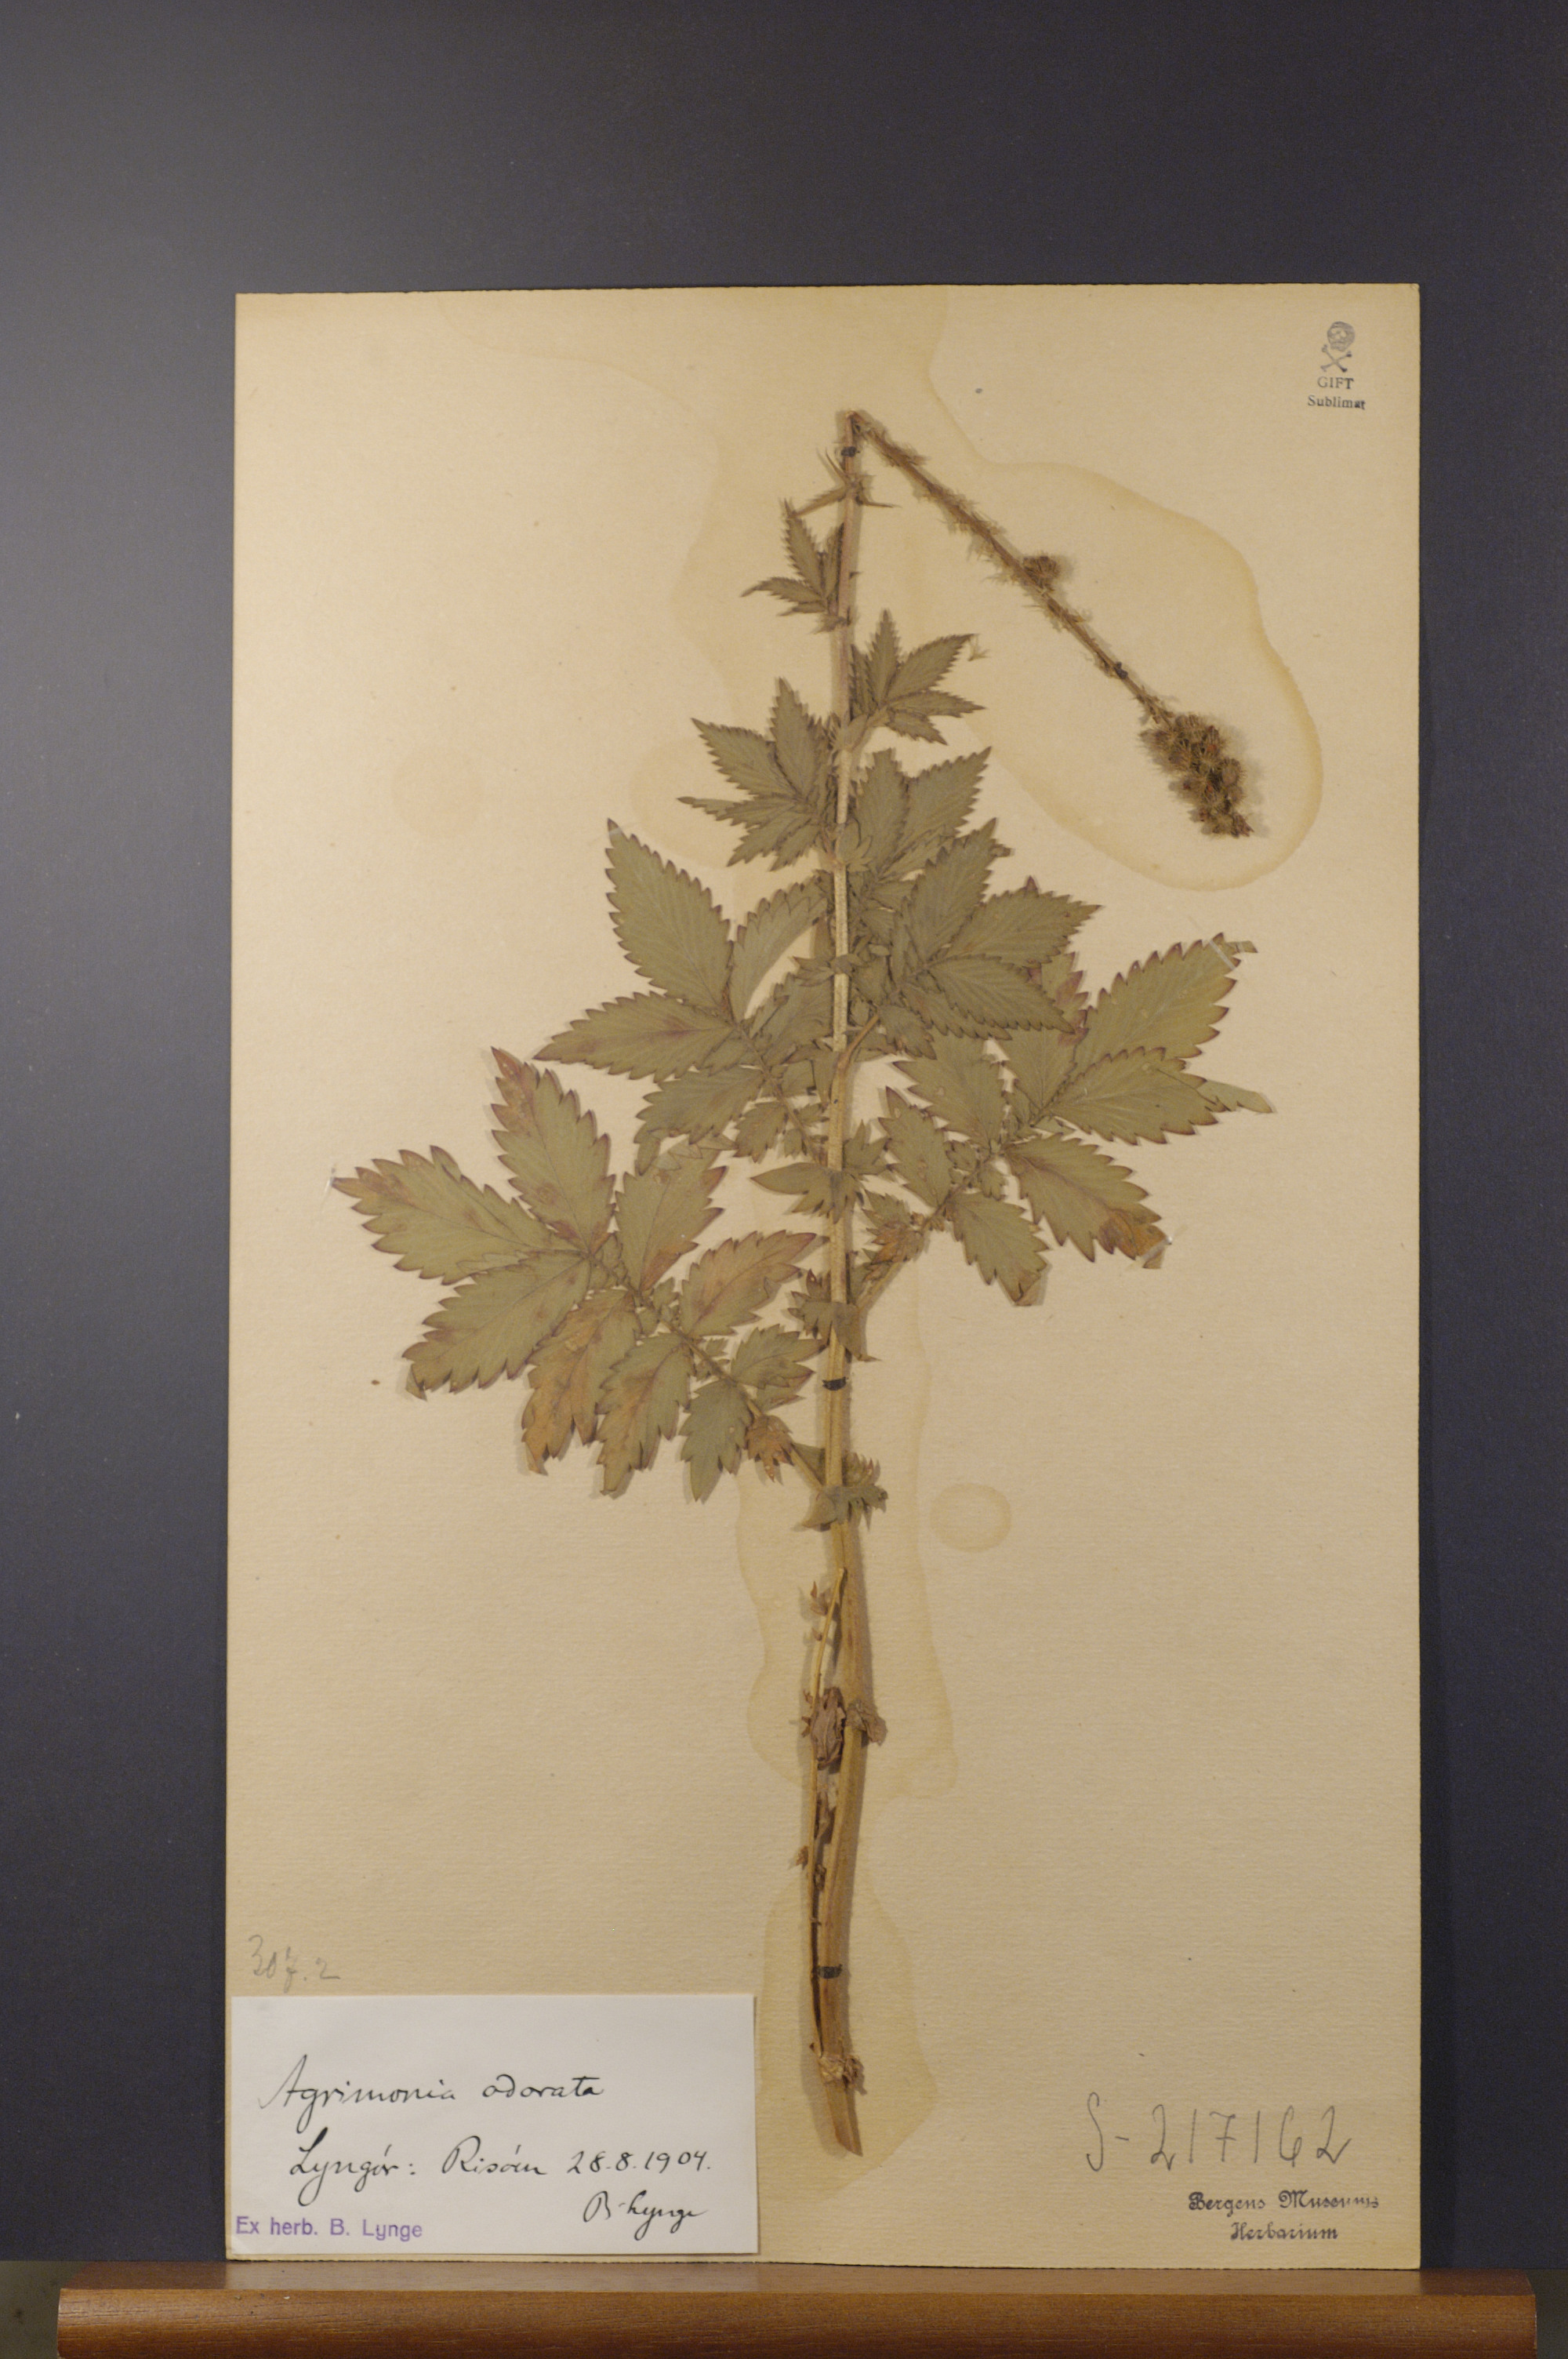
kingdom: Plantae
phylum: Tracheophyta
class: Magnoliopsida
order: Rosales
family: Rosaceae
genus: Agrimonia
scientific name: Agrimonia procera
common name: Fragrant agrimony
